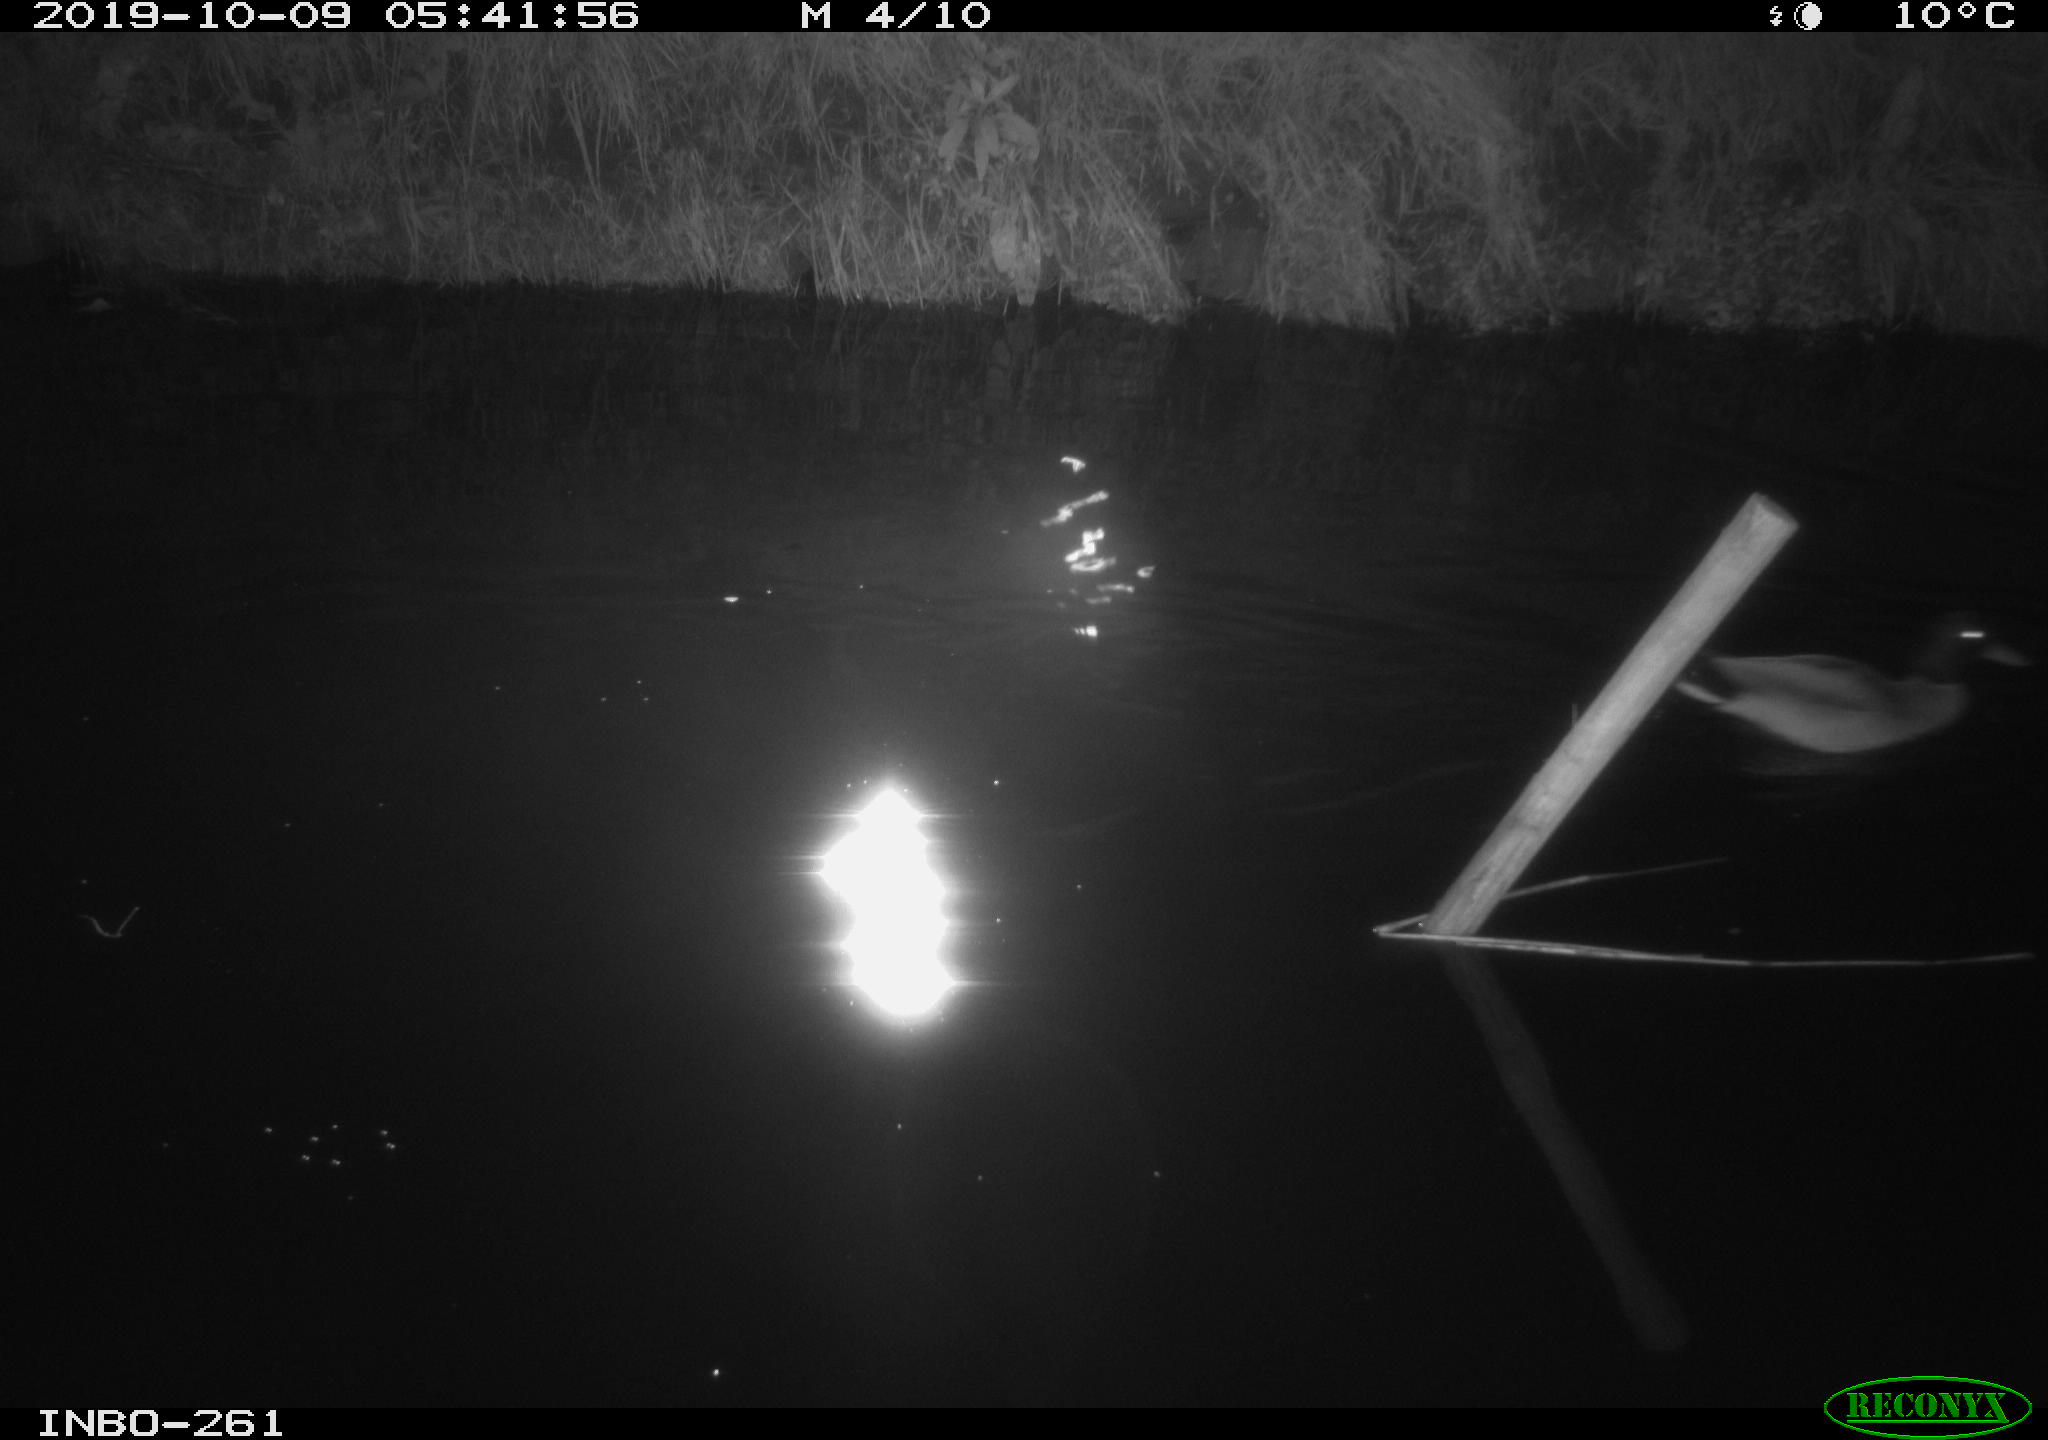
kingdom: Animalia
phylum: Chordata
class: Aves
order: Anseriformes
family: Anatidae
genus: Anas
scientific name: Anas platyrhynchos
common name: Mallard
